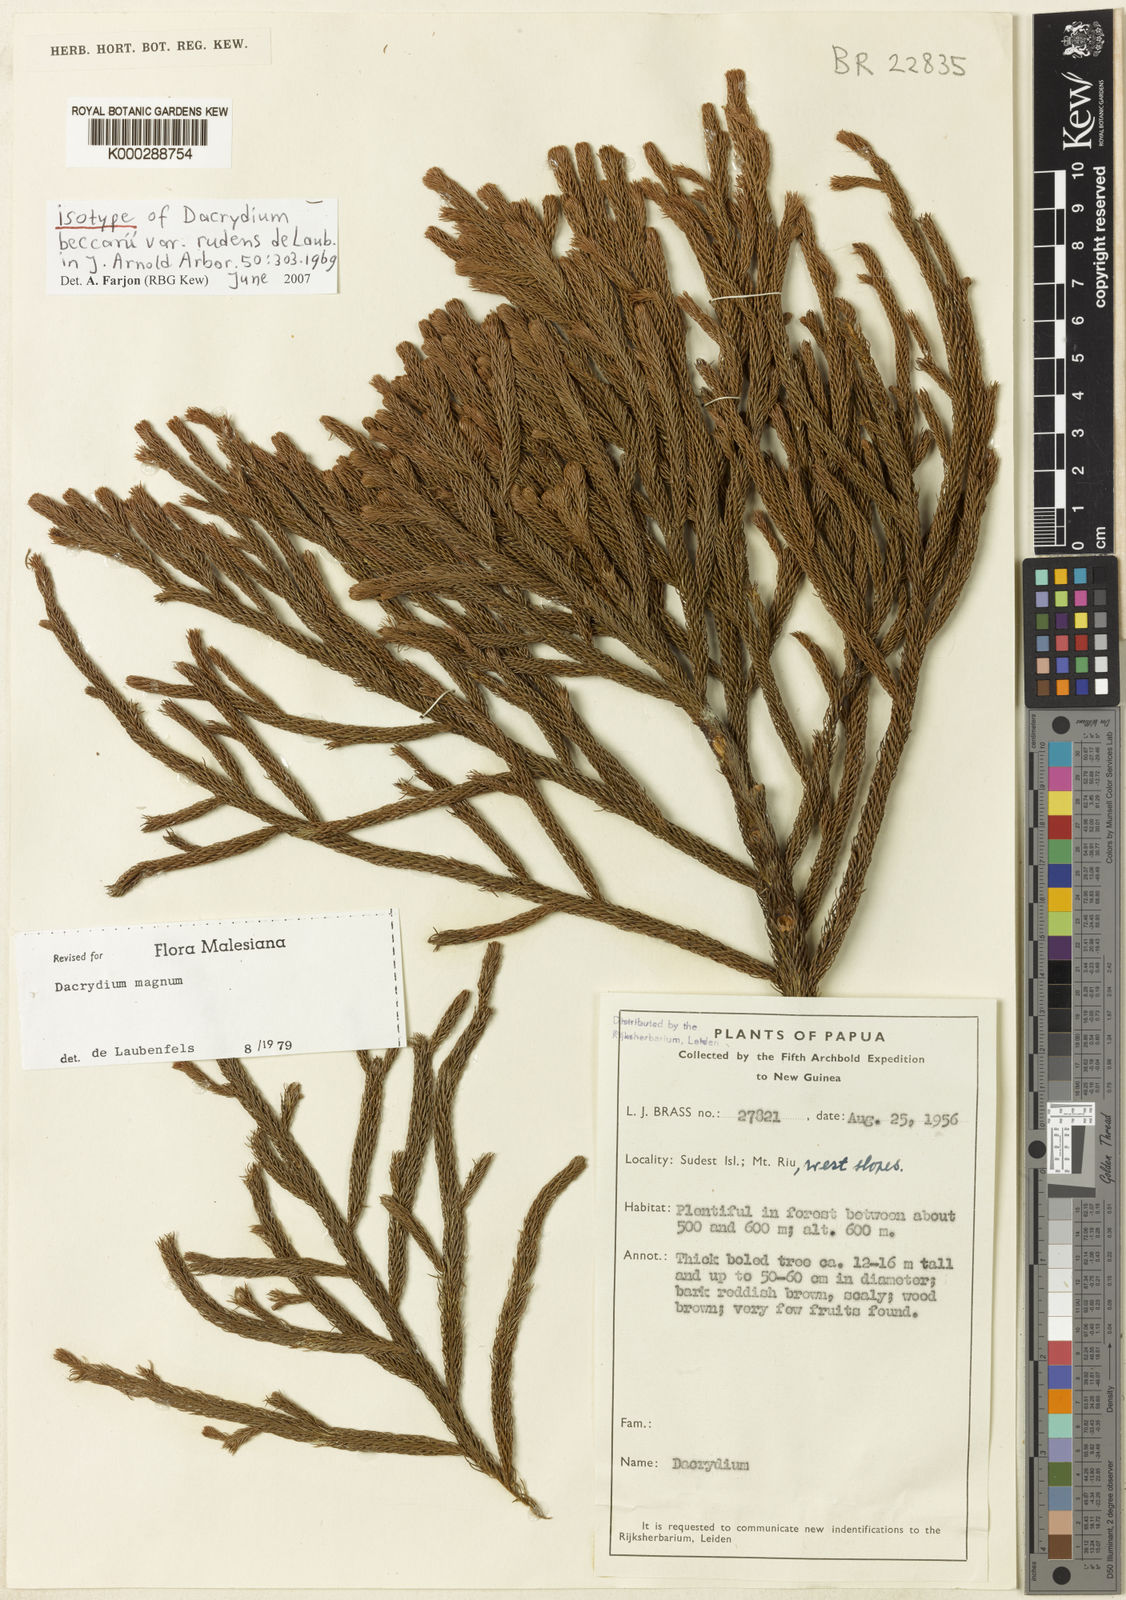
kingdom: Plantae
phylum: Tracheophyta
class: Pinopsida
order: Pinales
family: Podocarpaceae
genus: Dacrydium
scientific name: Dacrydium magnum
